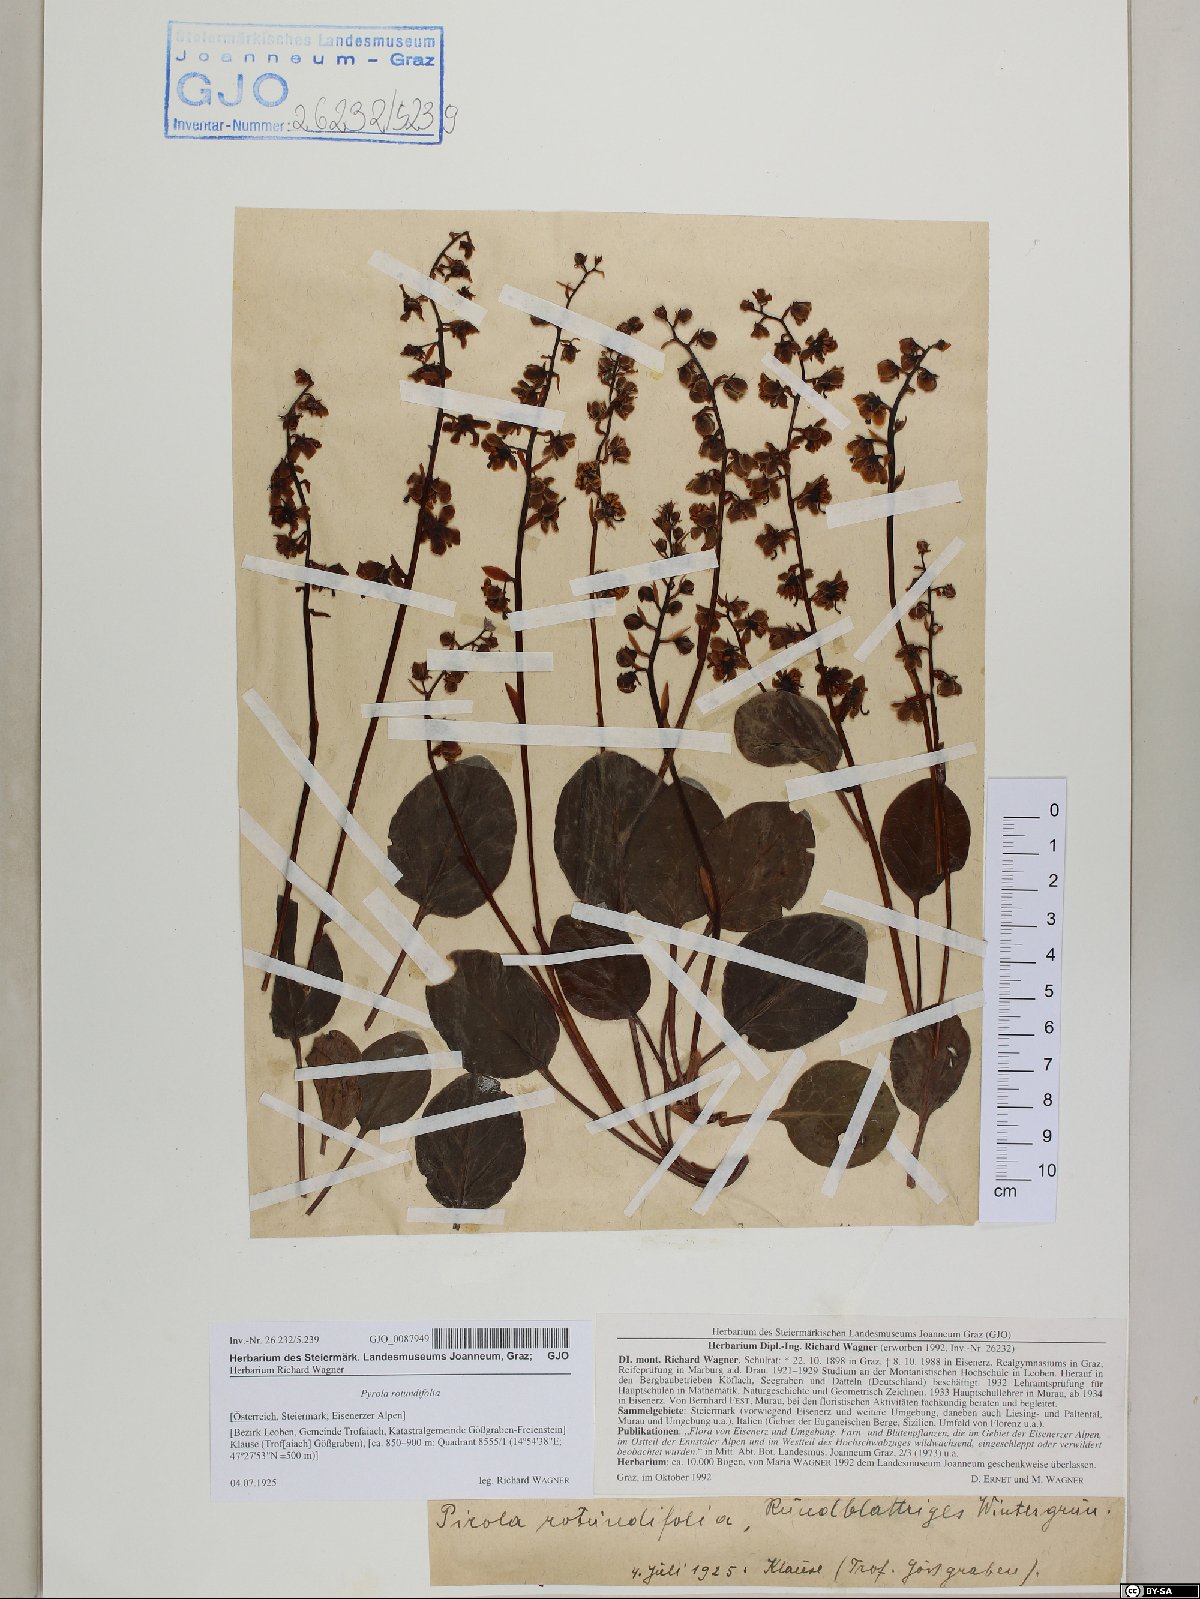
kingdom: Plantae
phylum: Tracheophyta
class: Magnoliopsida
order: Ericales
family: Ericaceae
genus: Pyrola
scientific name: Pyrola rotundifolia
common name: Round-leaved wintergreen
